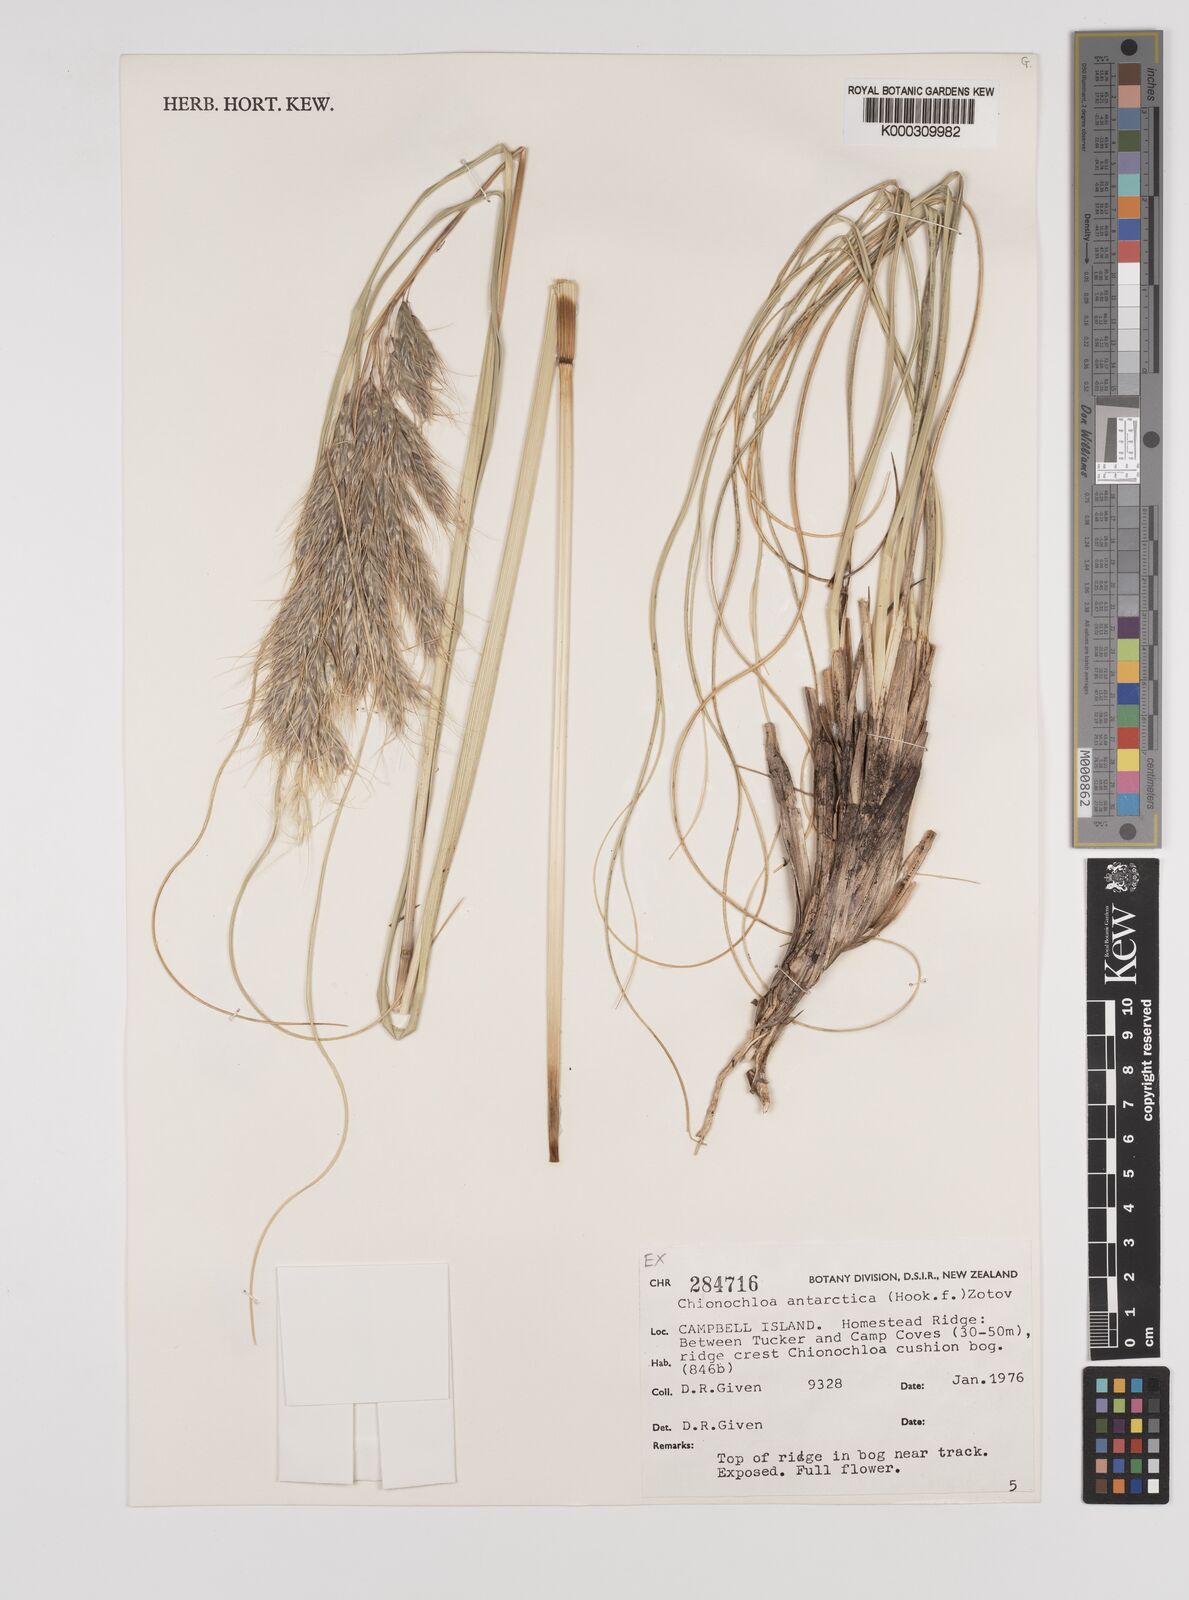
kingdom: Plantae
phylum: Tracheophyta
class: Liliopsida
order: Poales
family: Poaceae
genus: Chionochloa
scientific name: Chionochloa antarctica
